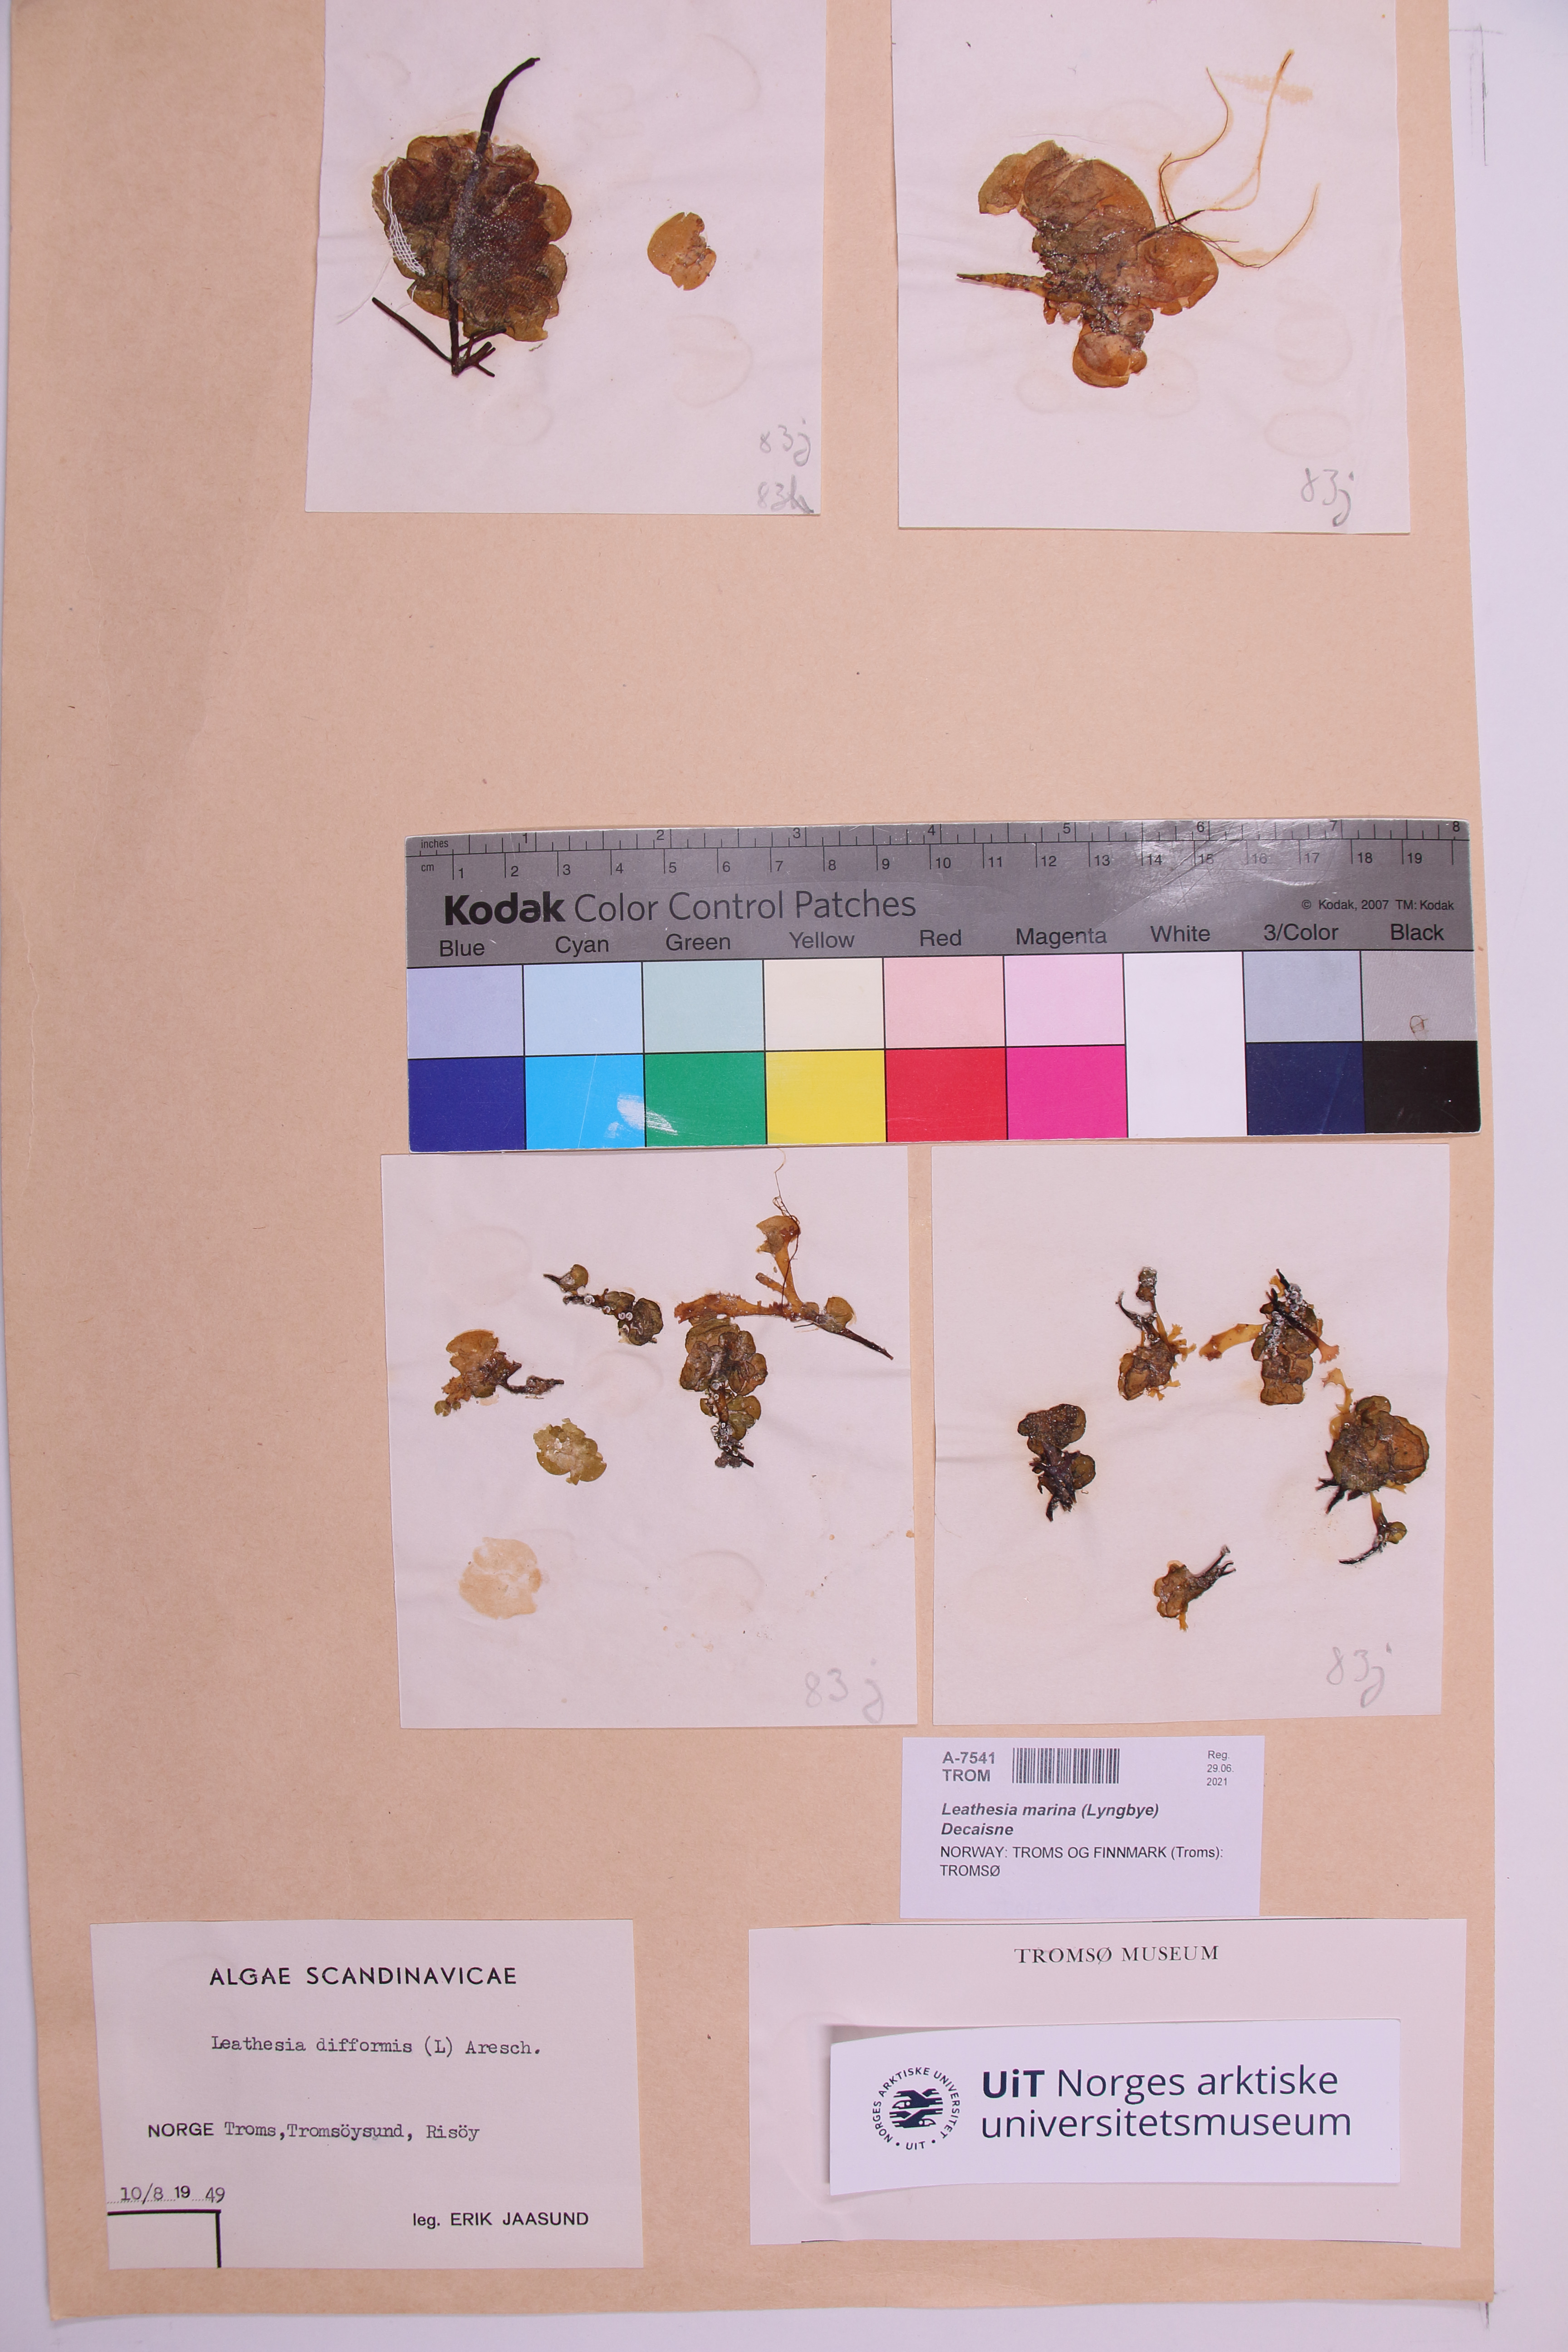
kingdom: Chromista
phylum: Ochrophyta
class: Phaeophyceae
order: Ectocarpales
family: Chordariaceae
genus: Leathesia
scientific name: Leathesia marina
